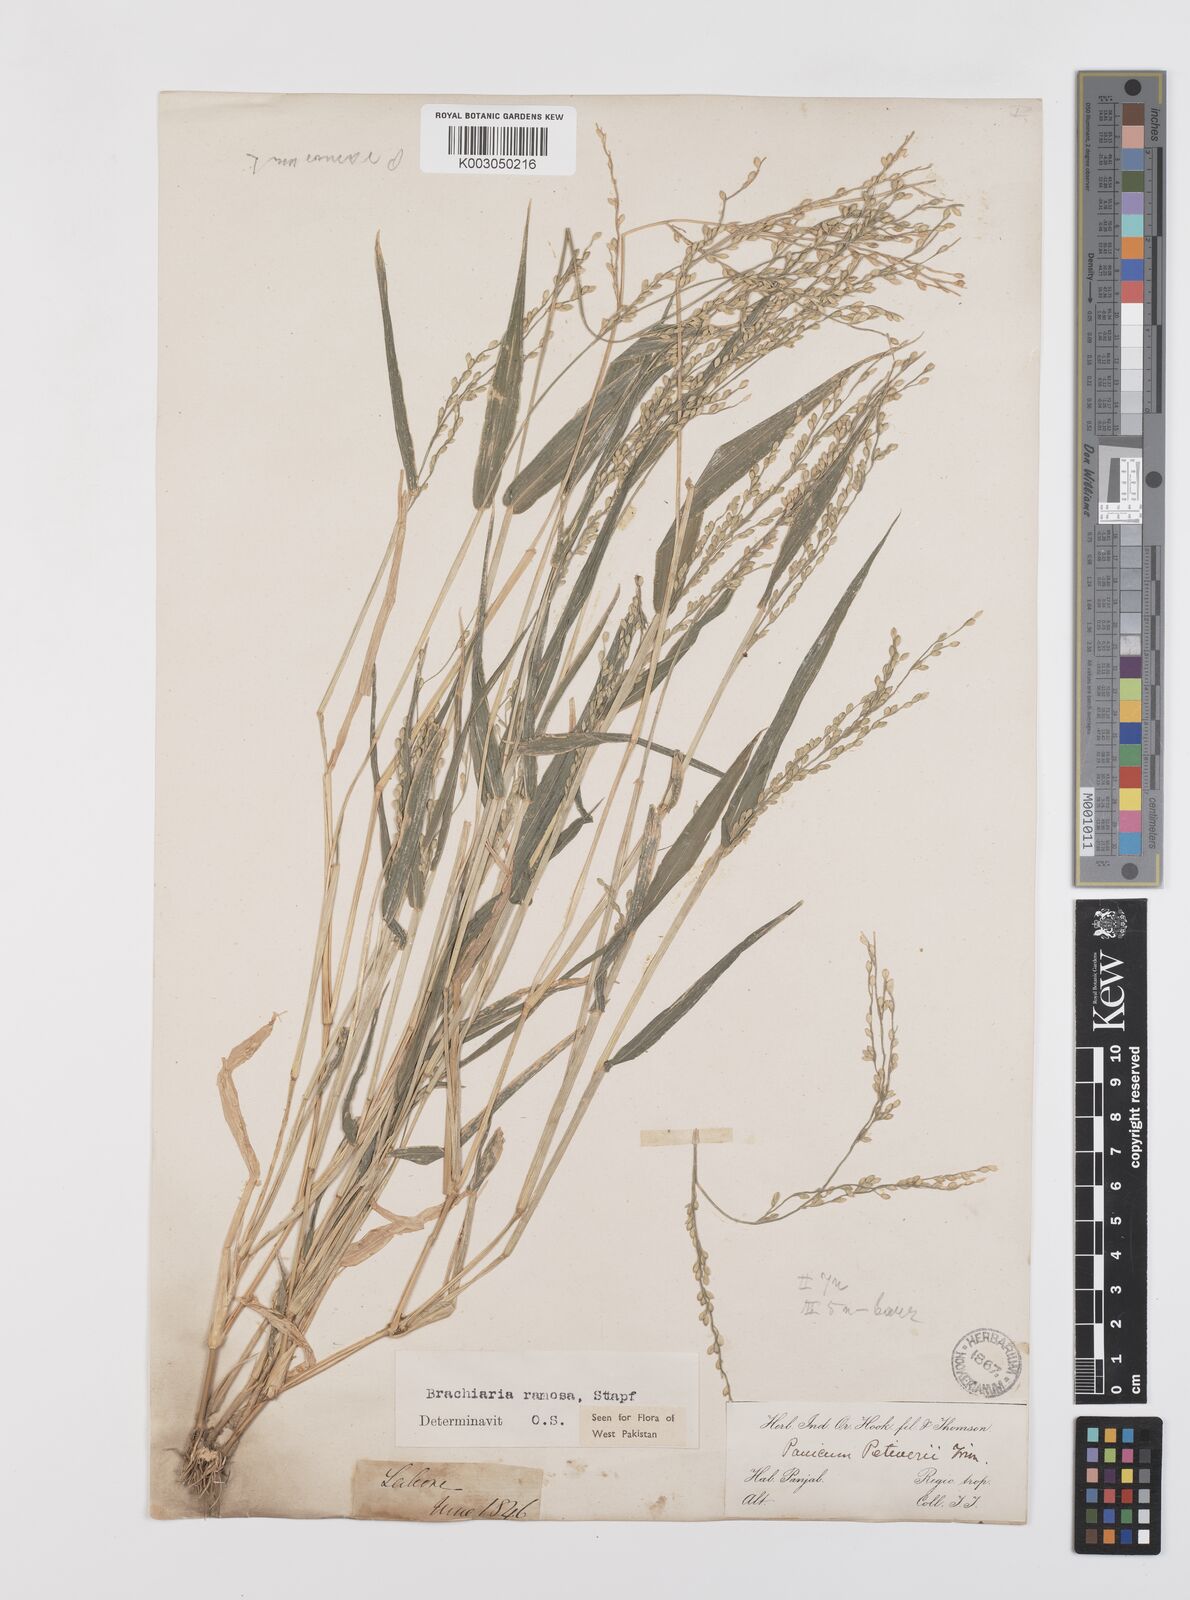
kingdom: Plantae
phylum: Tracheophyta
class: Liliopsida
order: Poales
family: Poaceae
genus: Urochloa
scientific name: Urochloa ramosa
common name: Browntop millet
